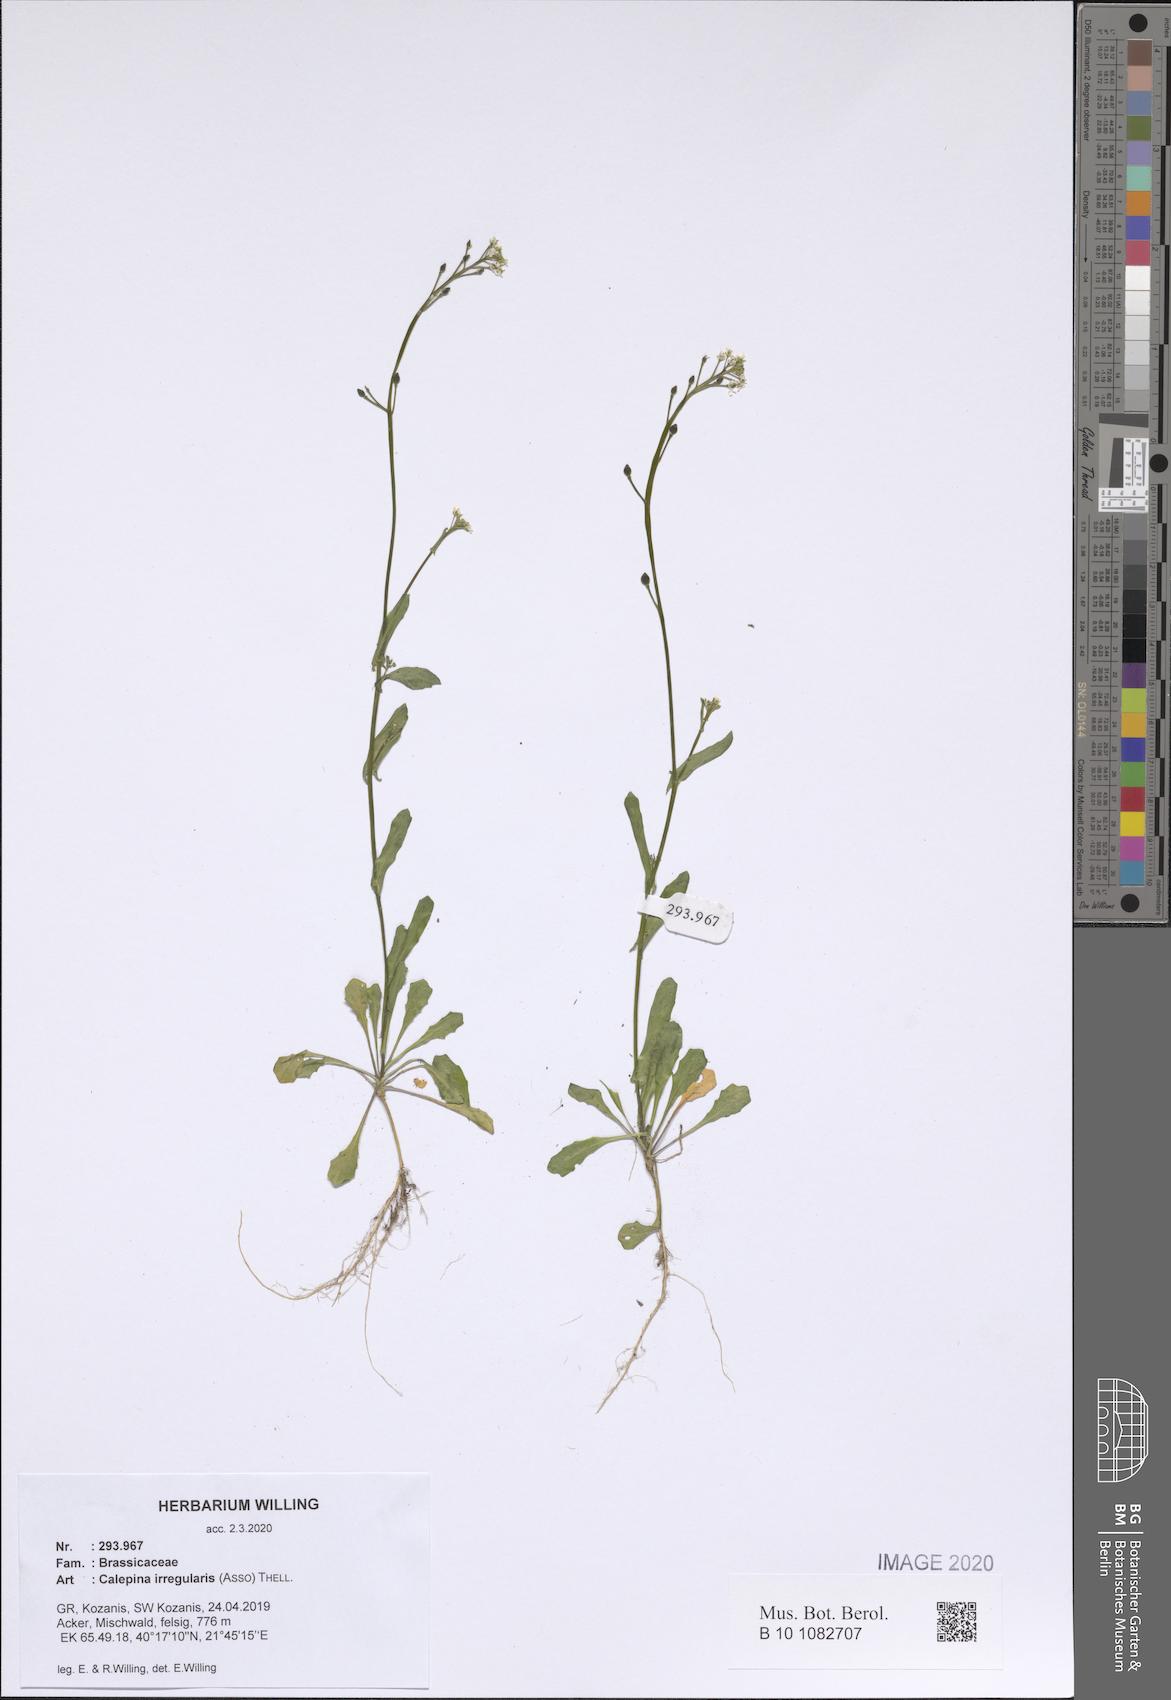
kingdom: Plantae
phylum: Tracheophyta
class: Magnoliopsida
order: Brassicales
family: Brassicaceae
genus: Calepina
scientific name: Calepina irregularis
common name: White ballmustard
